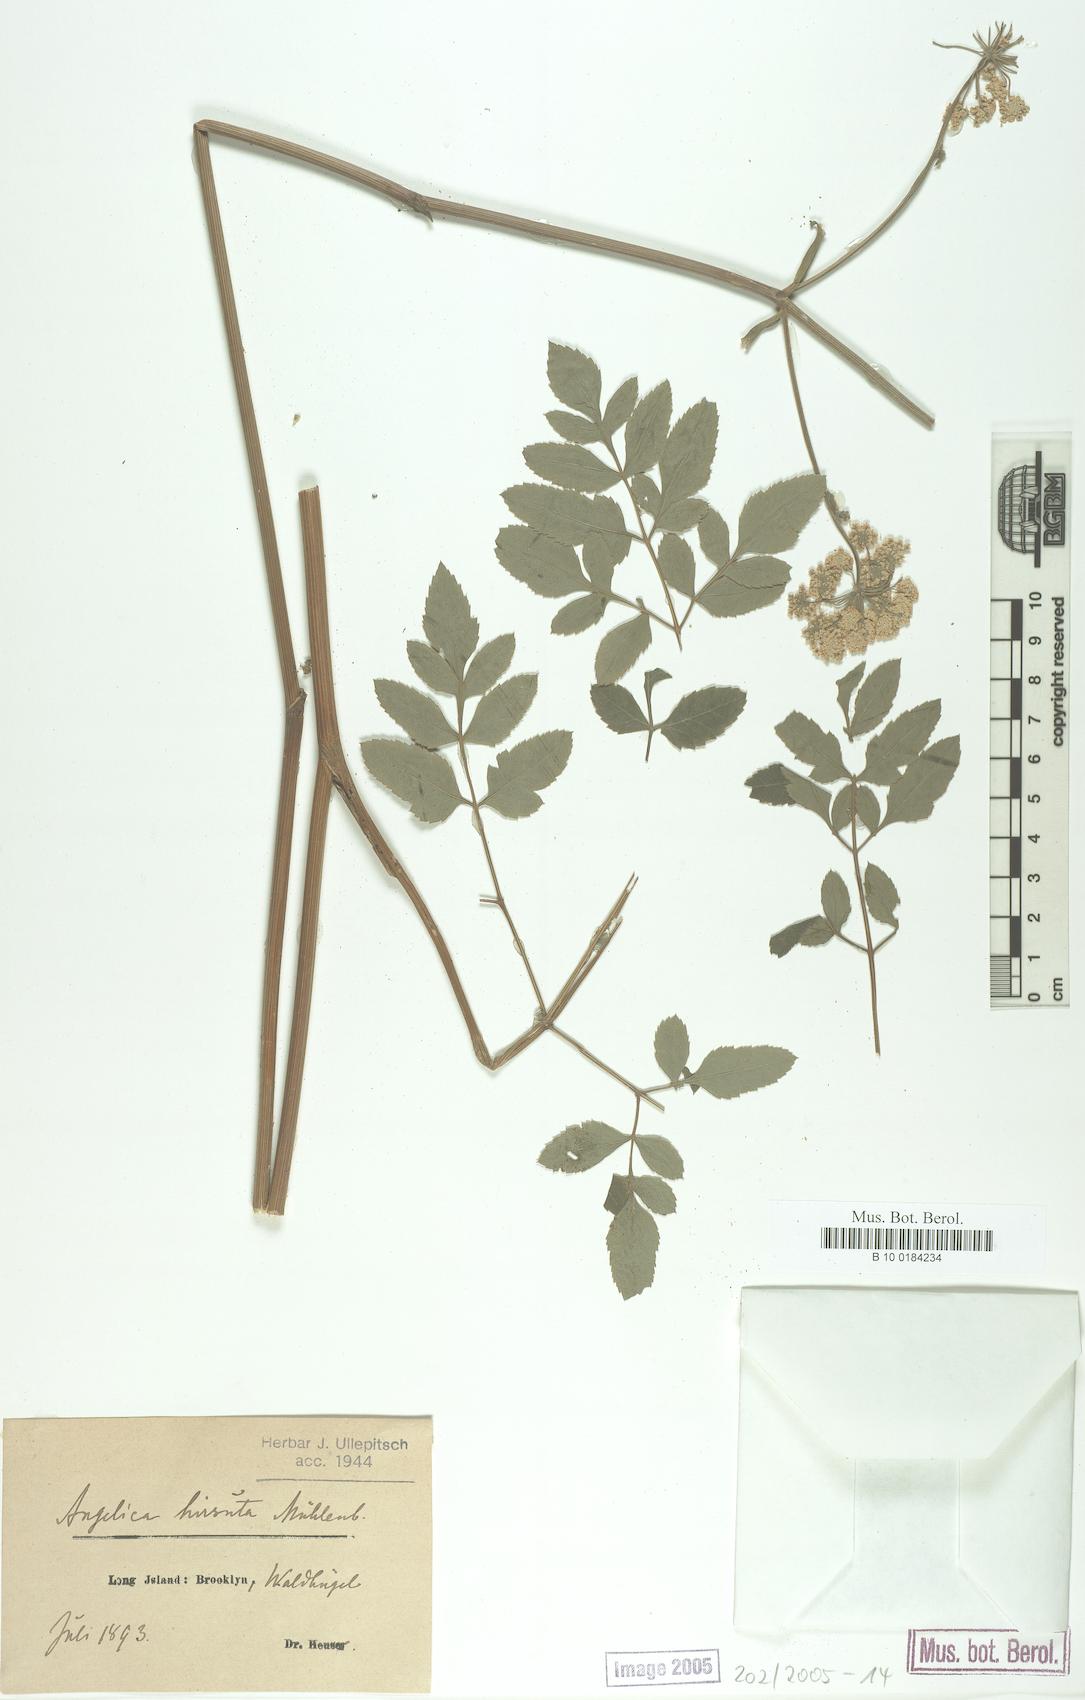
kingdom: Plantae
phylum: Tracheophyta
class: Magnoliopsida
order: Apiales
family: Apiaceae
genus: Angelica
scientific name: Angelica
